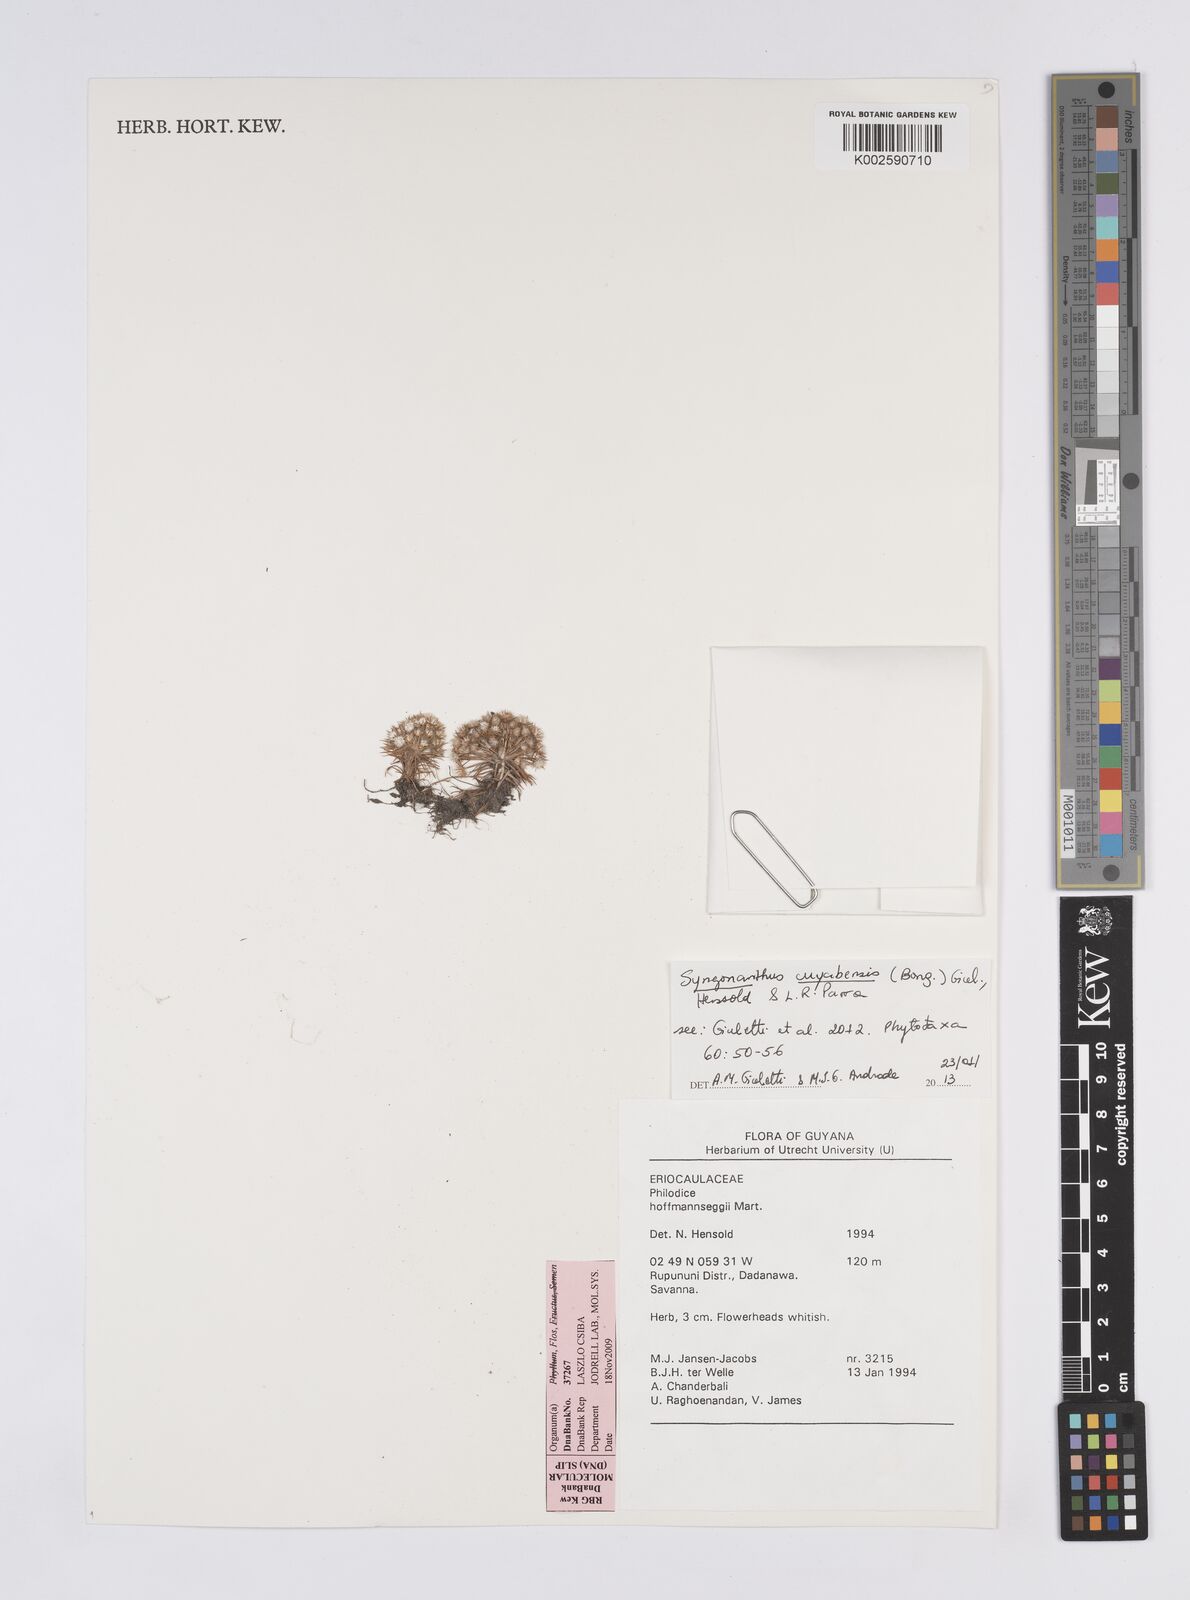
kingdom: Plantae
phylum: Tracheophyta
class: Liliopsida
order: Poales
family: Eriocaulaceae
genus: Syngonanthus
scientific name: Syngonanthus cuyabensis
